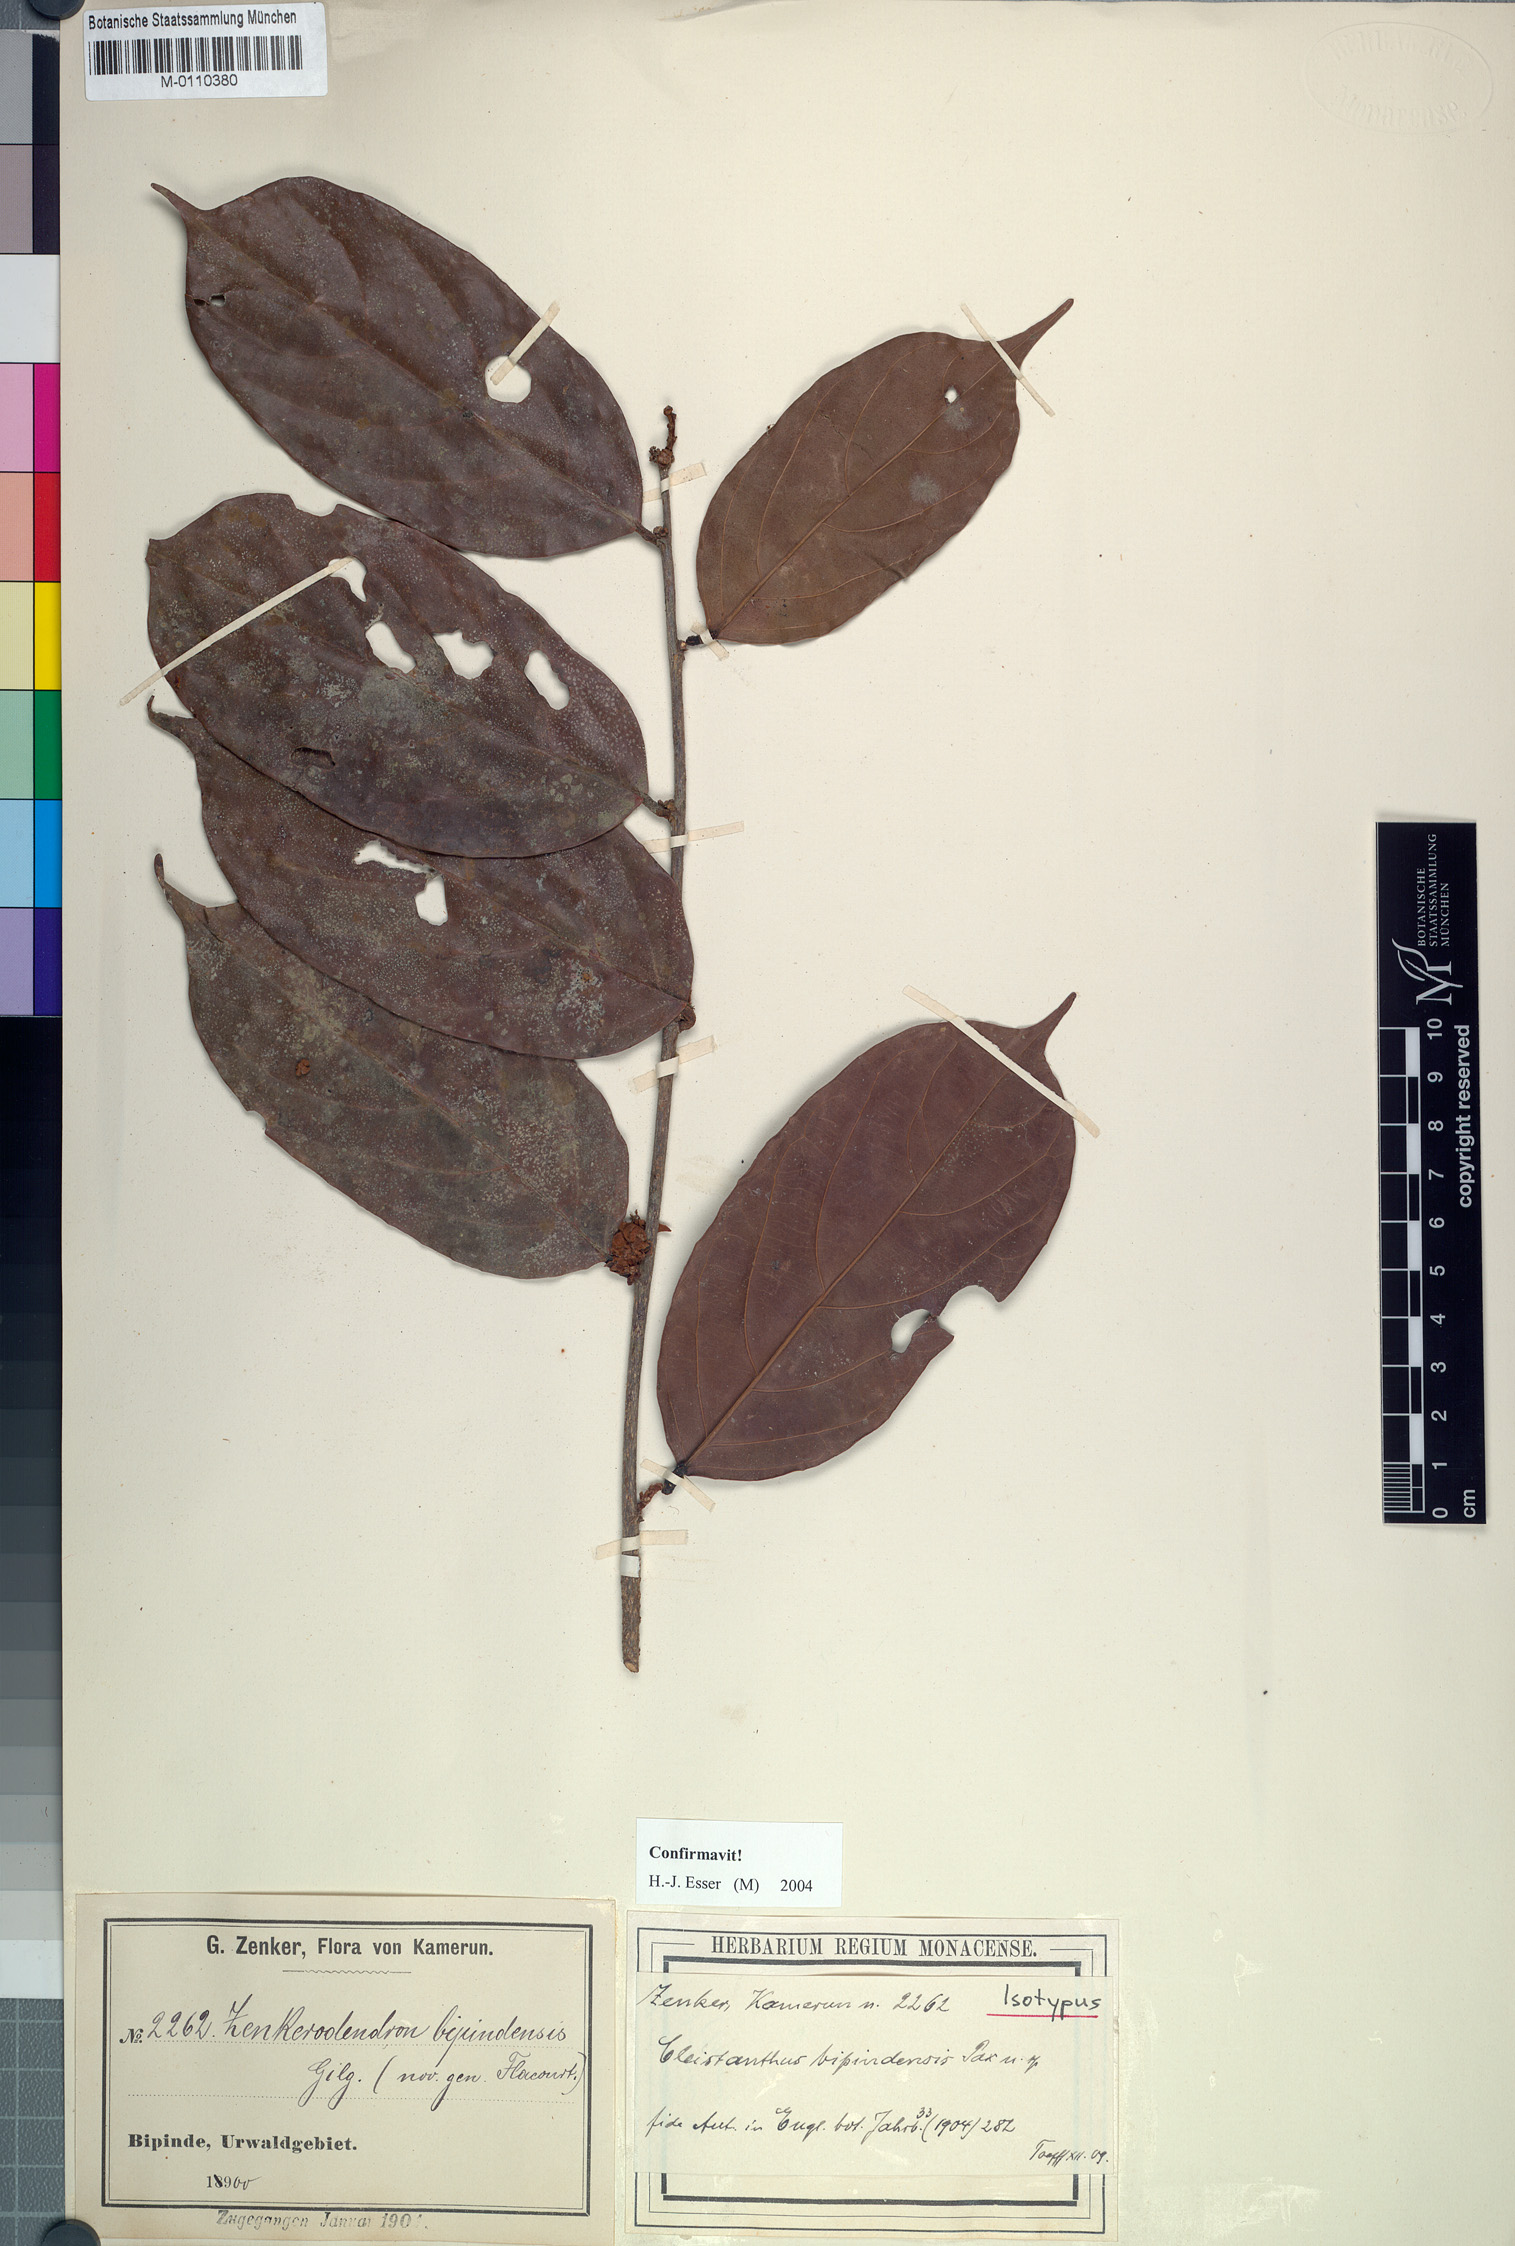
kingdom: Plantae
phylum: Tracheophyta
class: Magnoliopsida
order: Malpighiales
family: Phyllanthaceae
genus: Cleistanthus
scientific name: Cleistanthus bipindensis
